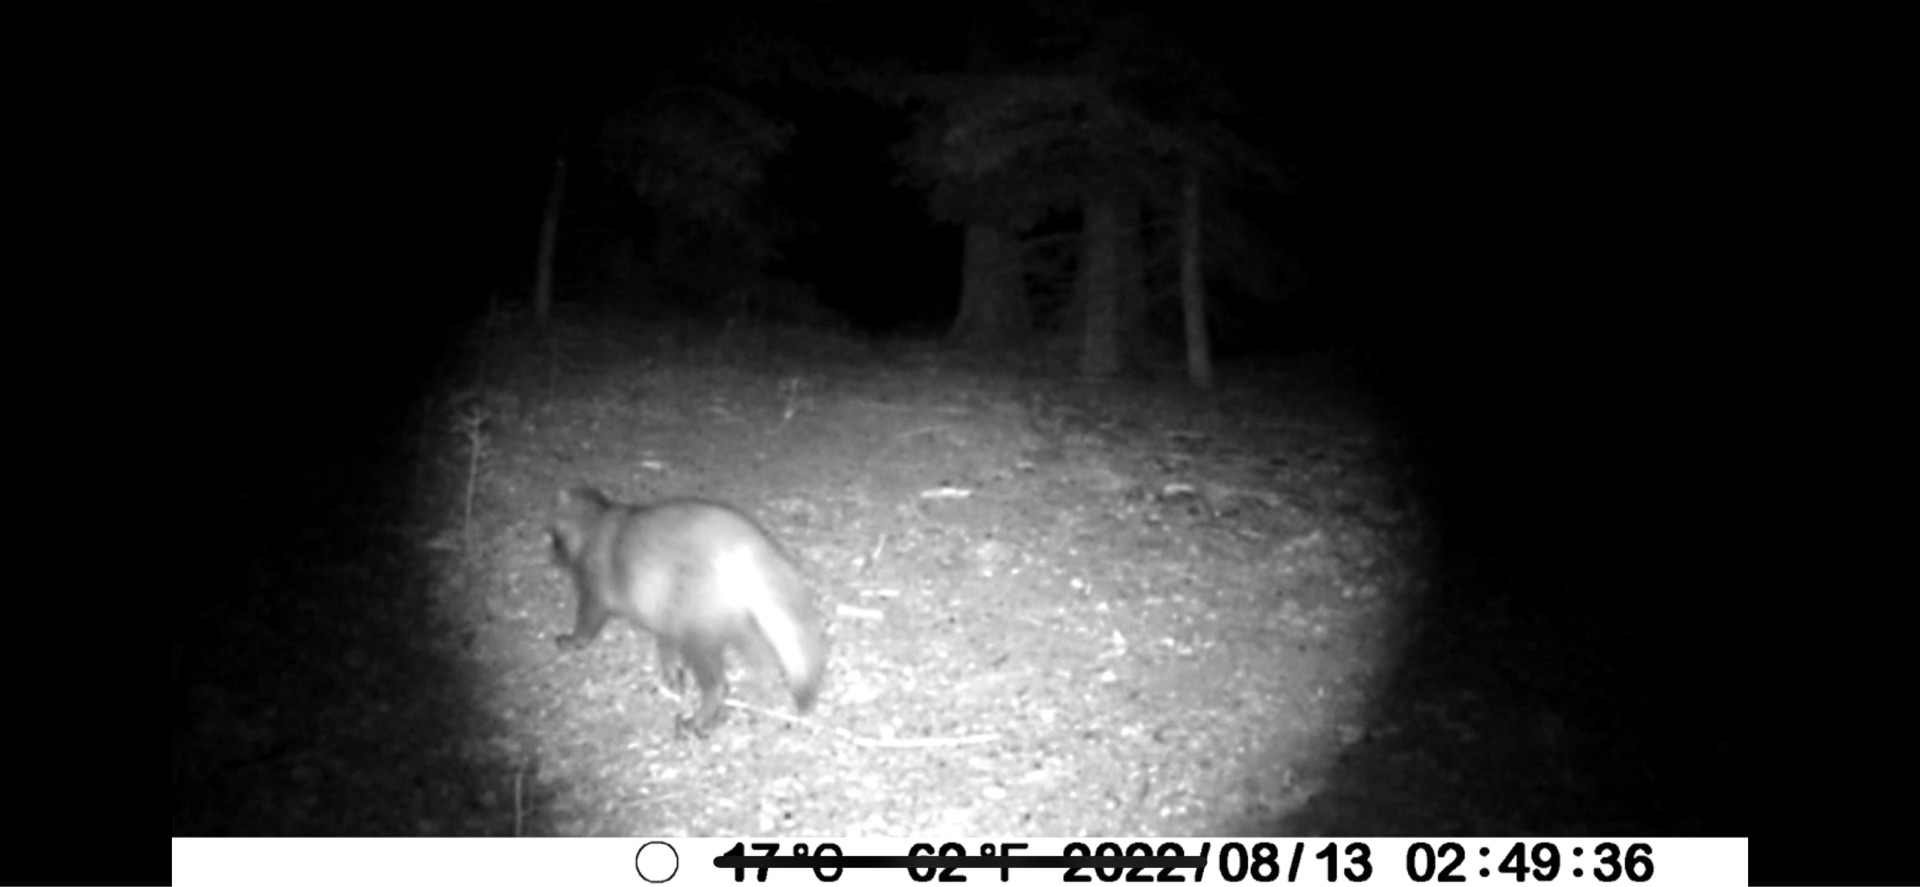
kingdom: Animalia
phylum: Chordata
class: Mammalia
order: Carnivora
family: Canidae
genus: Nyctereutes
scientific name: Nyctereutes procyonoides
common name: Mårhund
